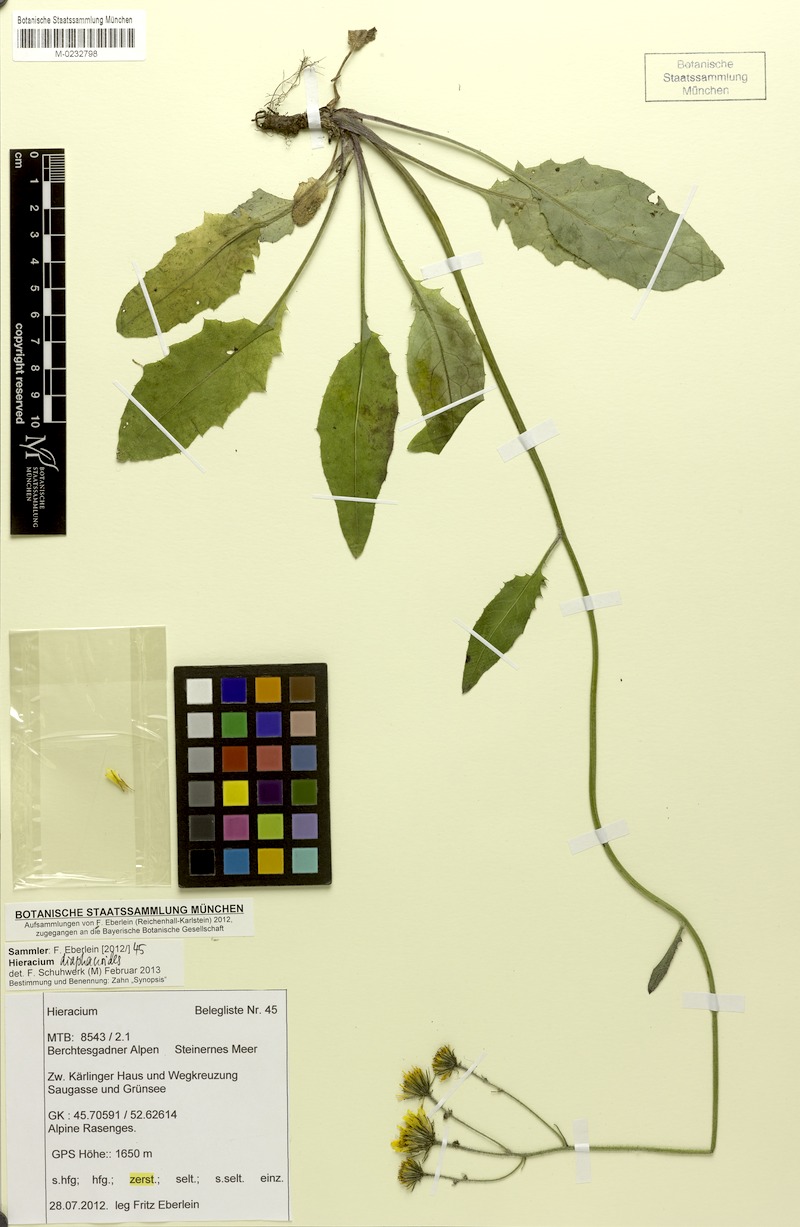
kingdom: Plantae
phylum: Tracheophyta
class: Magnoliopsida
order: Asterales
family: Asteraceae
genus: Hieracium
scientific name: Hieracium diaphanoides
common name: Fine-bracted hawkweed
